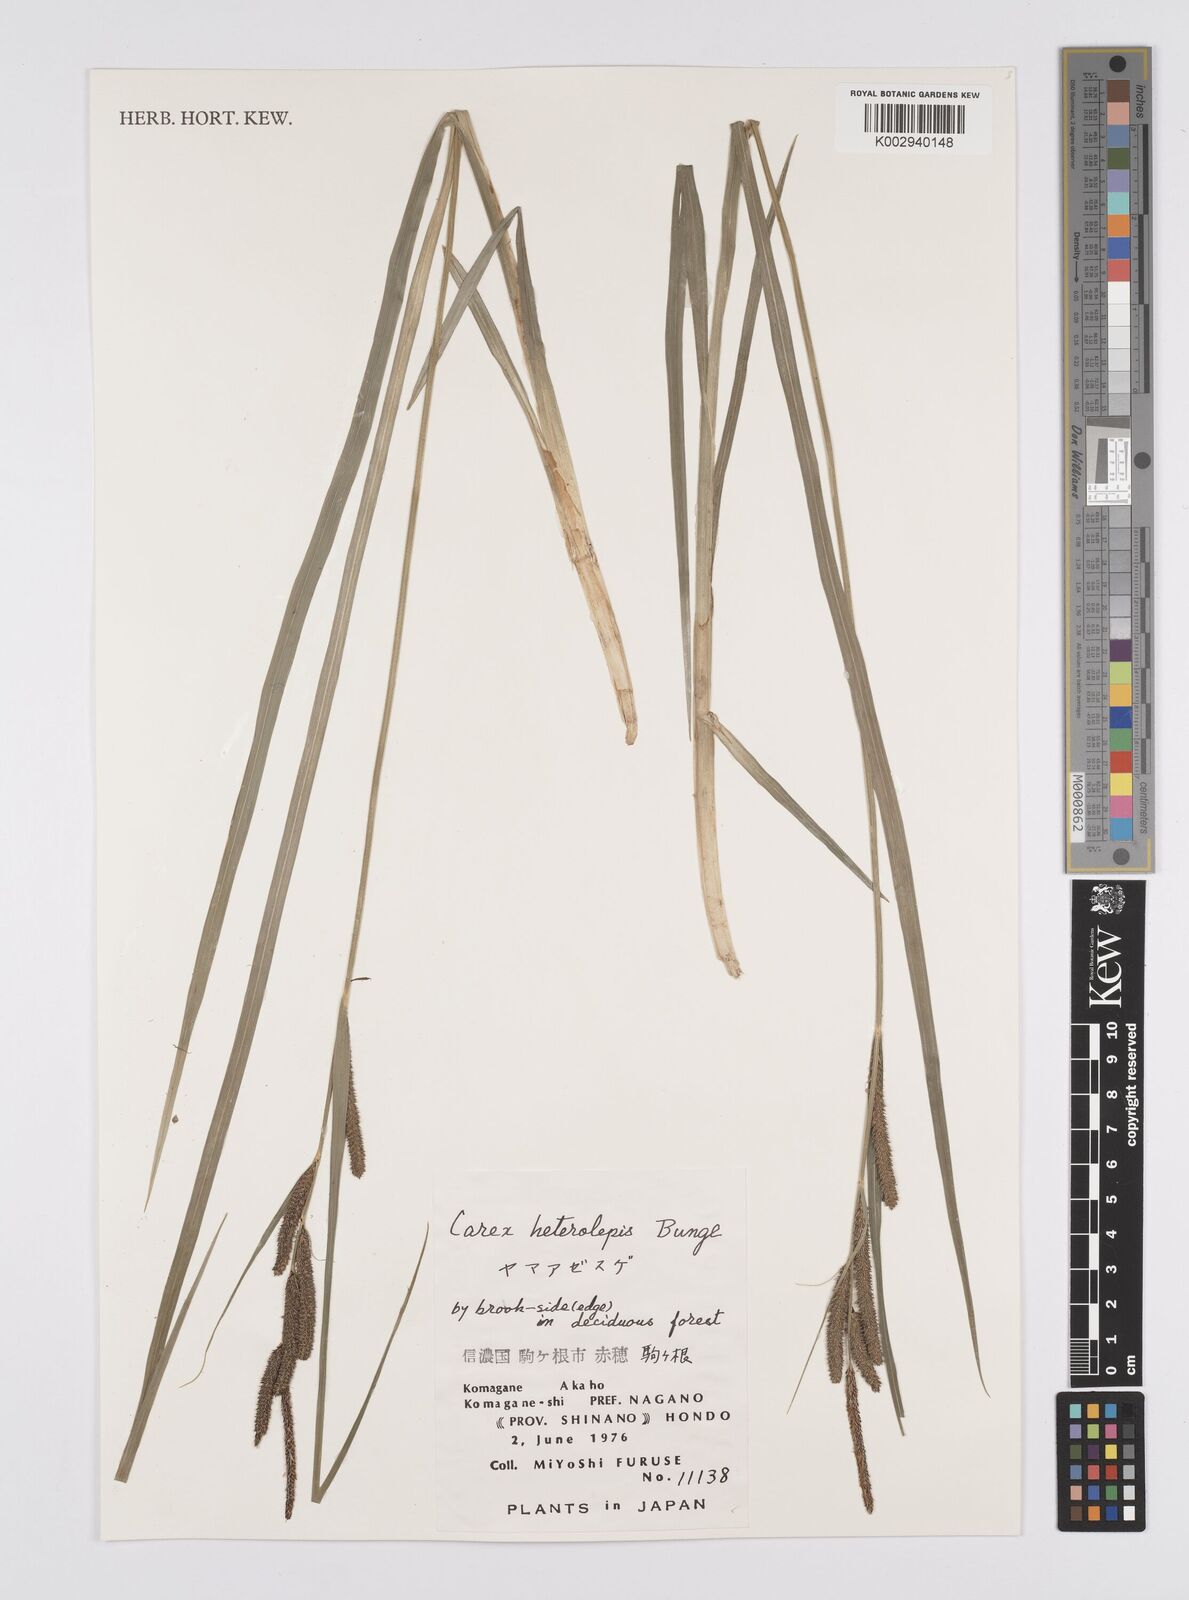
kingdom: Plantae
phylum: Tracheophyta
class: Liliopsida
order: Poales
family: Cyperaceae
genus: Carex
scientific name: Carex cruenta
